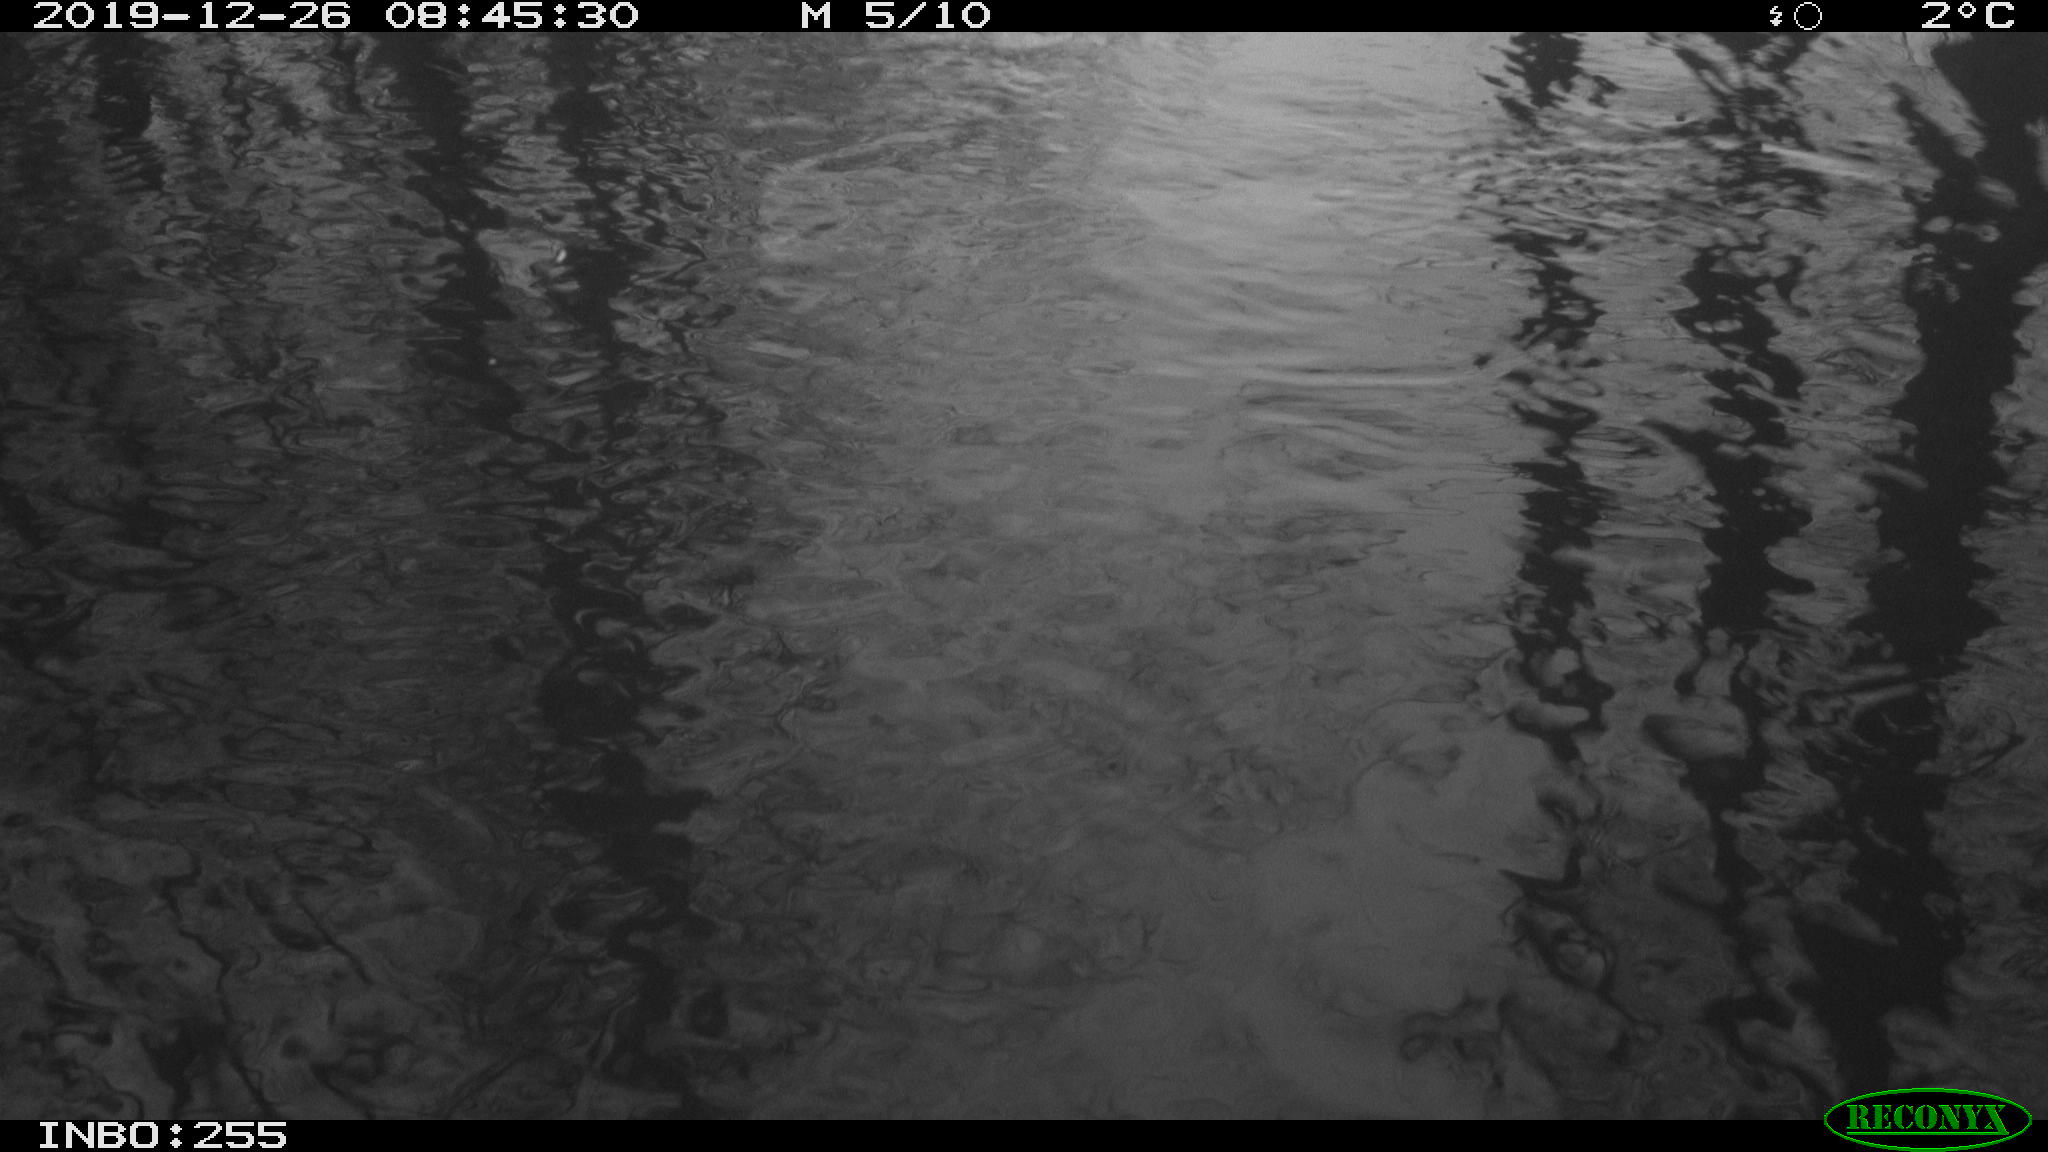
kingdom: Animalia
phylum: Chordata
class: Aves
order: Gruiformes
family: Rallidae
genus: Fulica
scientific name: Fulica atra
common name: Eurasian coot
